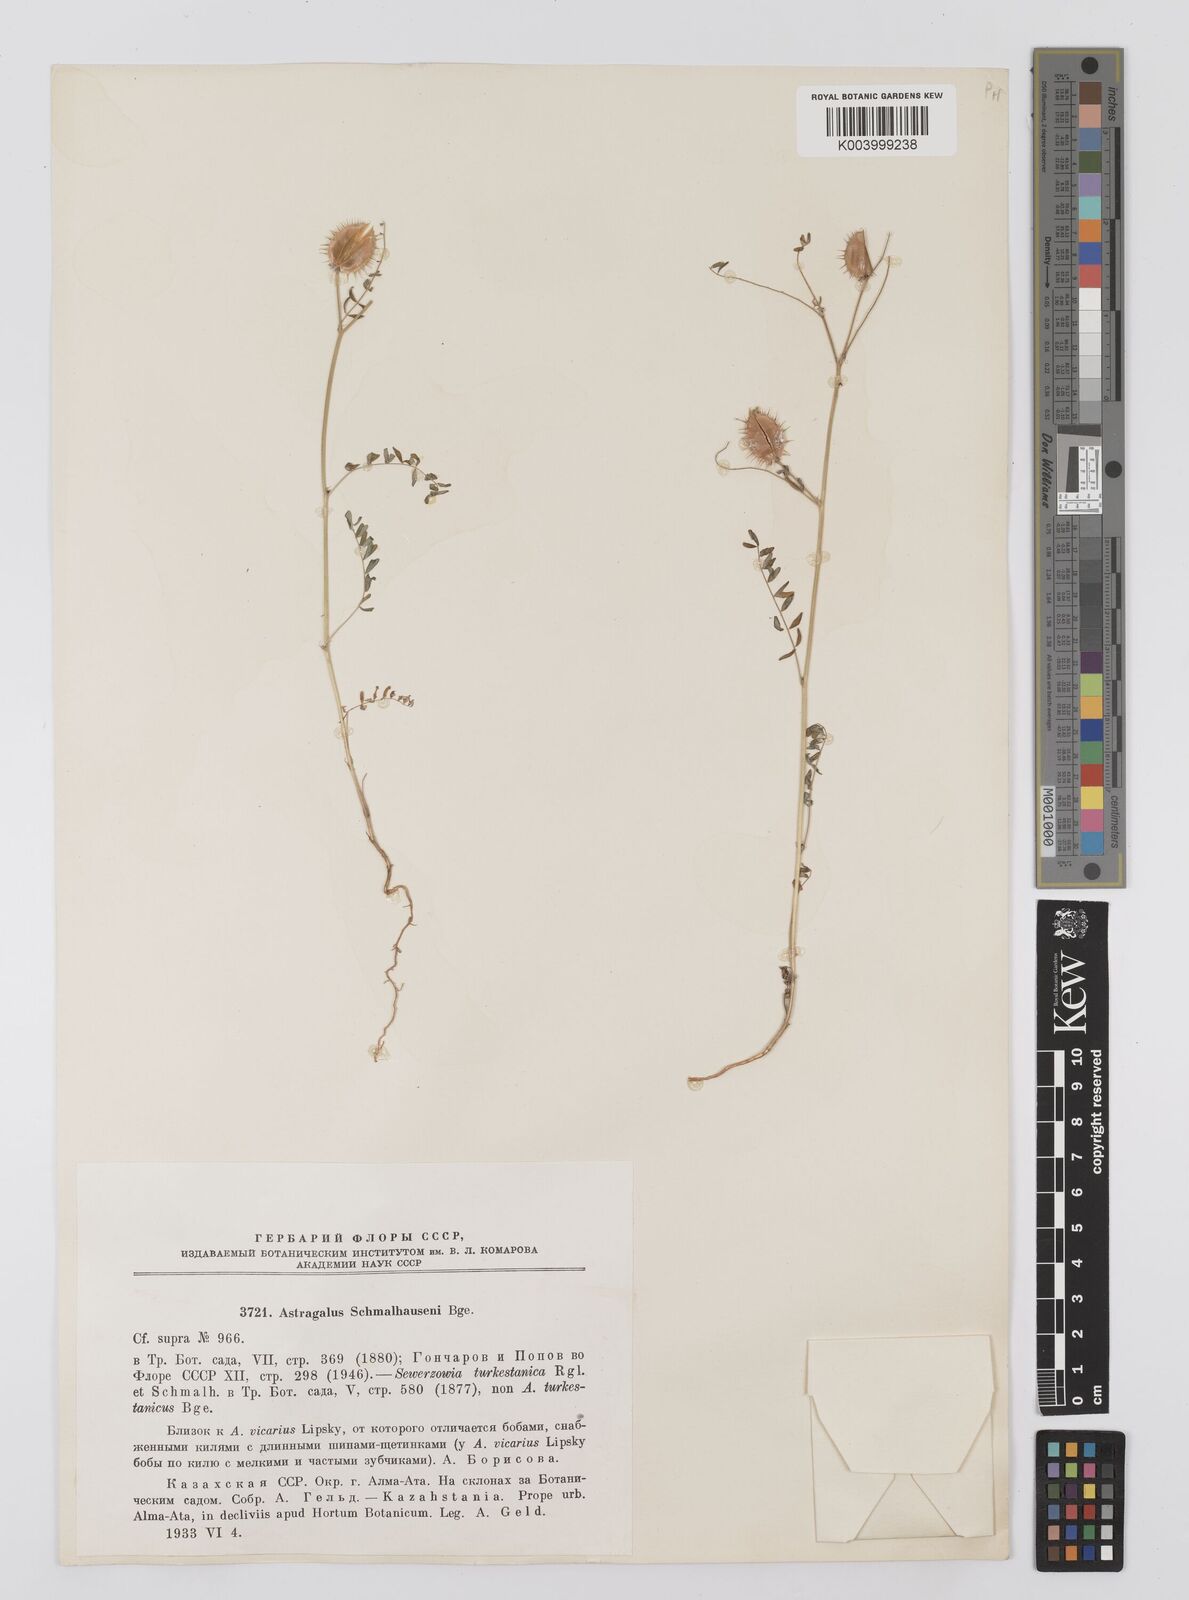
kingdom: Plantae
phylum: Tracheophyta
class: Magnoliopsida
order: Fabales
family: Fabaceae
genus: Astragalus
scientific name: Astragalus schmalhausenii
